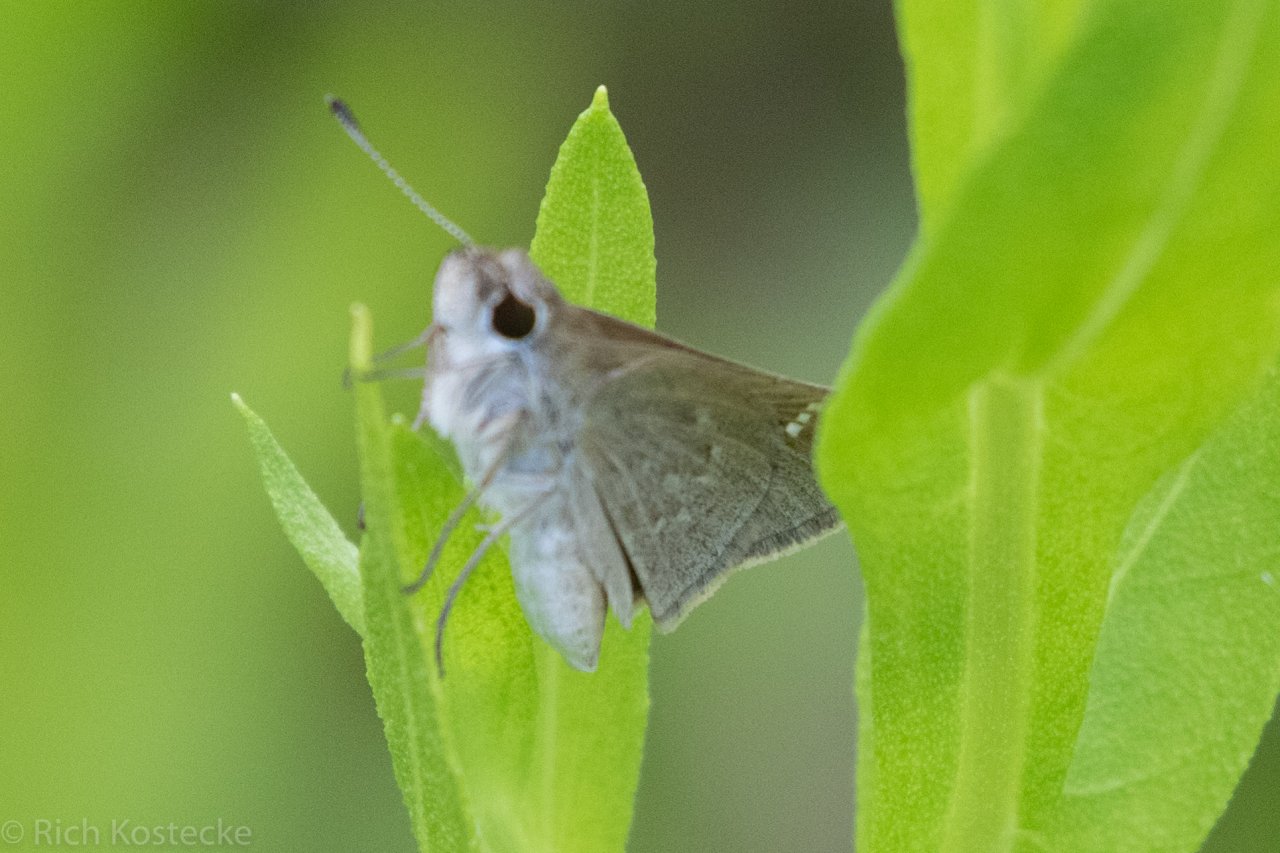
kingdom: Animalia
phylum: Arthropoda
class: Insecta
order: Lepidoptera
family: Hesperiidae
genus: Lerodea
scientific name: Lerodea eufala
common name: Eufala Skipper
